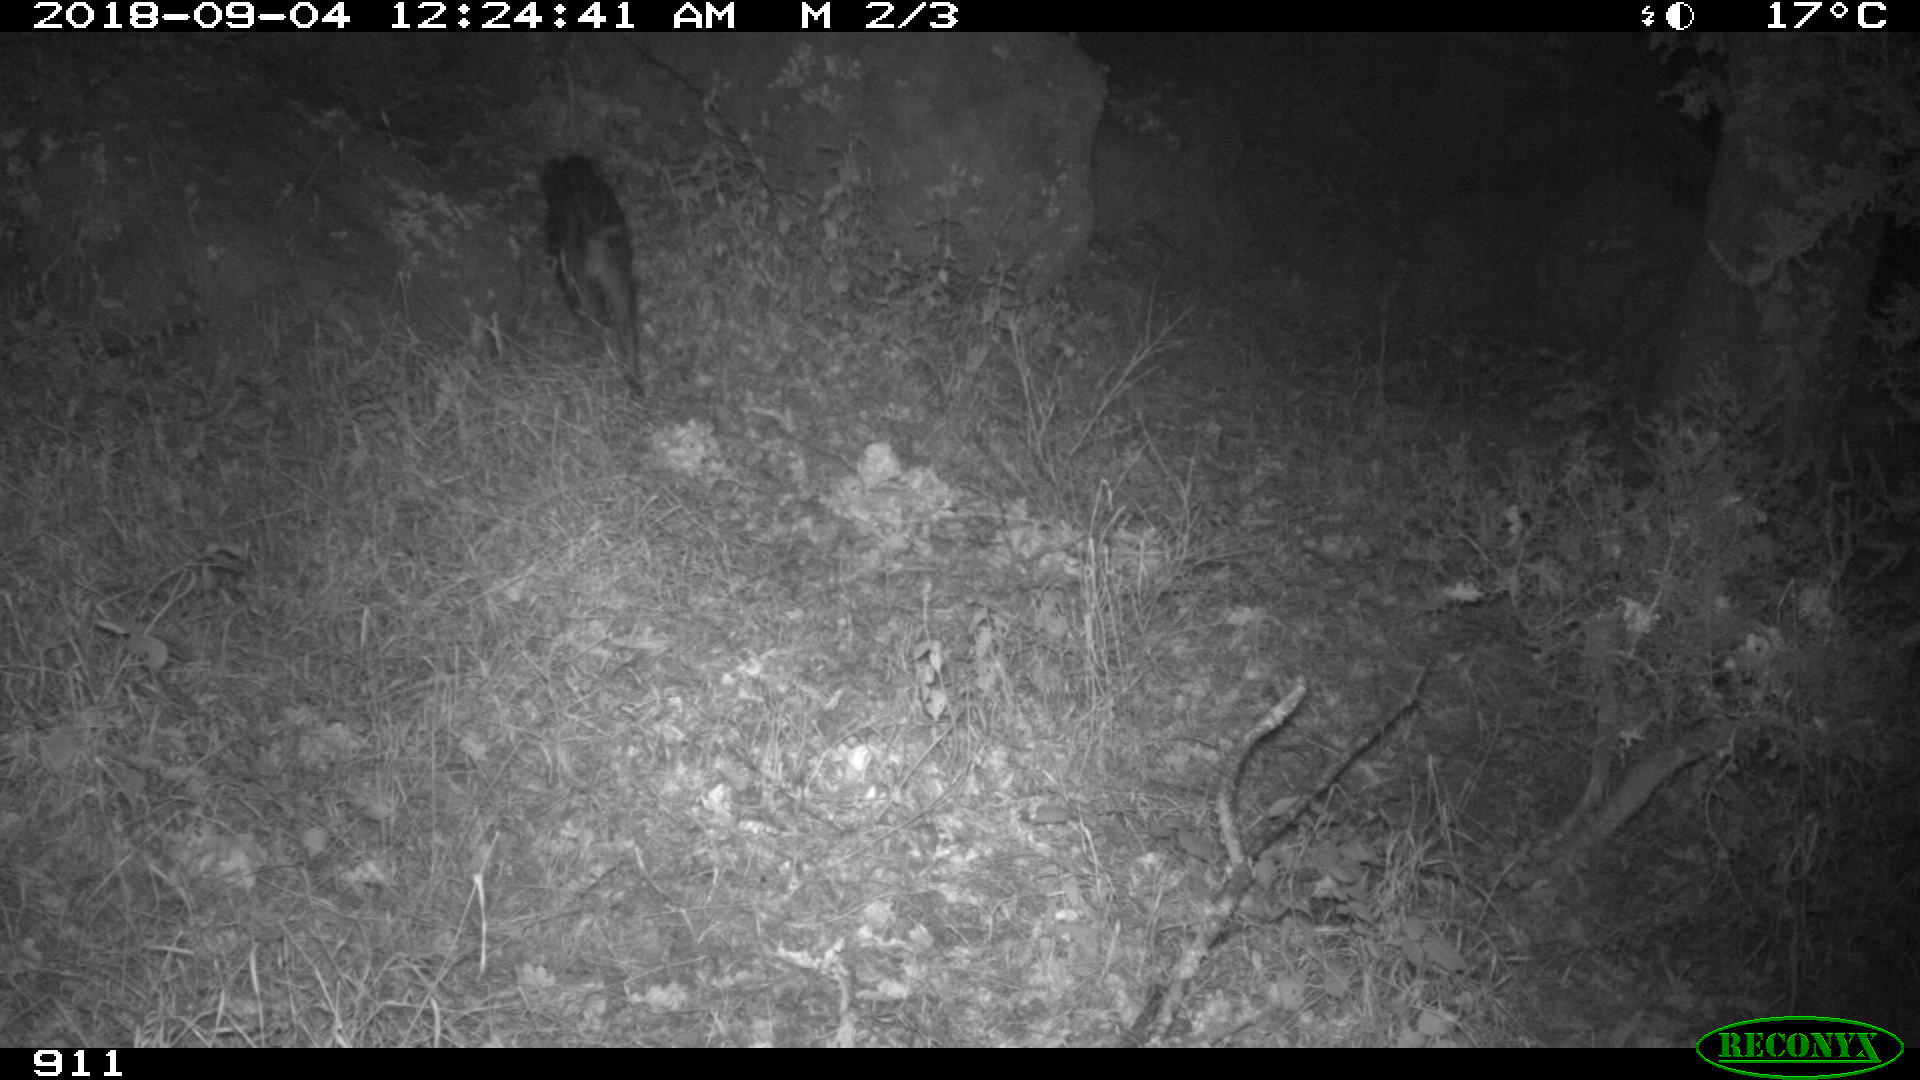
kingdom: Animalia
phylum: Chordata
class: Mammalia
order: Artiodactyla
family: Suidae
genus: Sus
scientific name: Sus scrofa
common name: Wild boar
